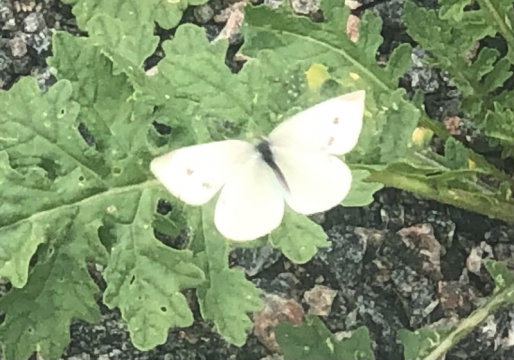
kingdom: Animalia
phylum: Arthropoda
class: Insecta
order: Lepidoptera
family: Pieridae
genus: Pieris
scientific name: Pieris rapae
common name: Cabbage White
